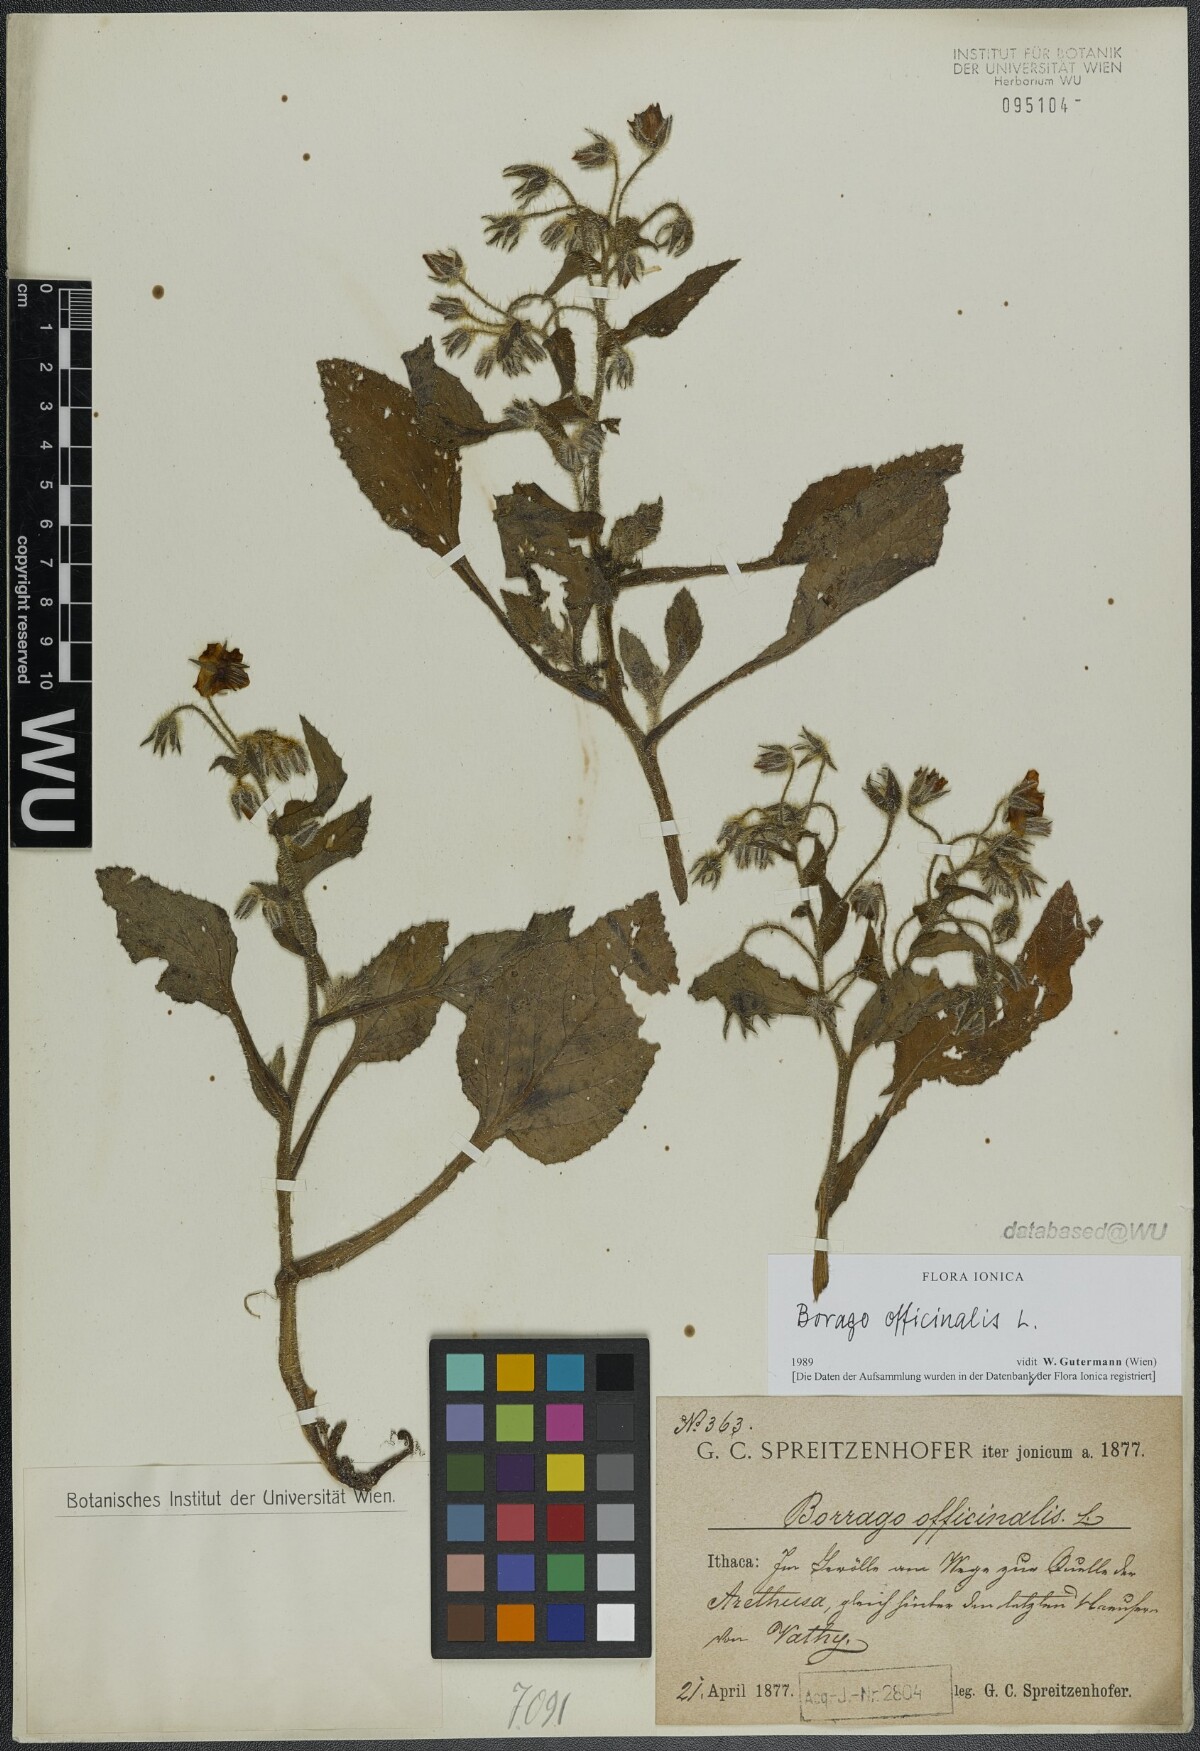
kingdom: Plantae
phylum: Tracheophyta
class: Magnoliopsida
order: Boraginales
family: Boraginaceae
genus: Borago
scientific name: Borago officinalis
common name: Borage
